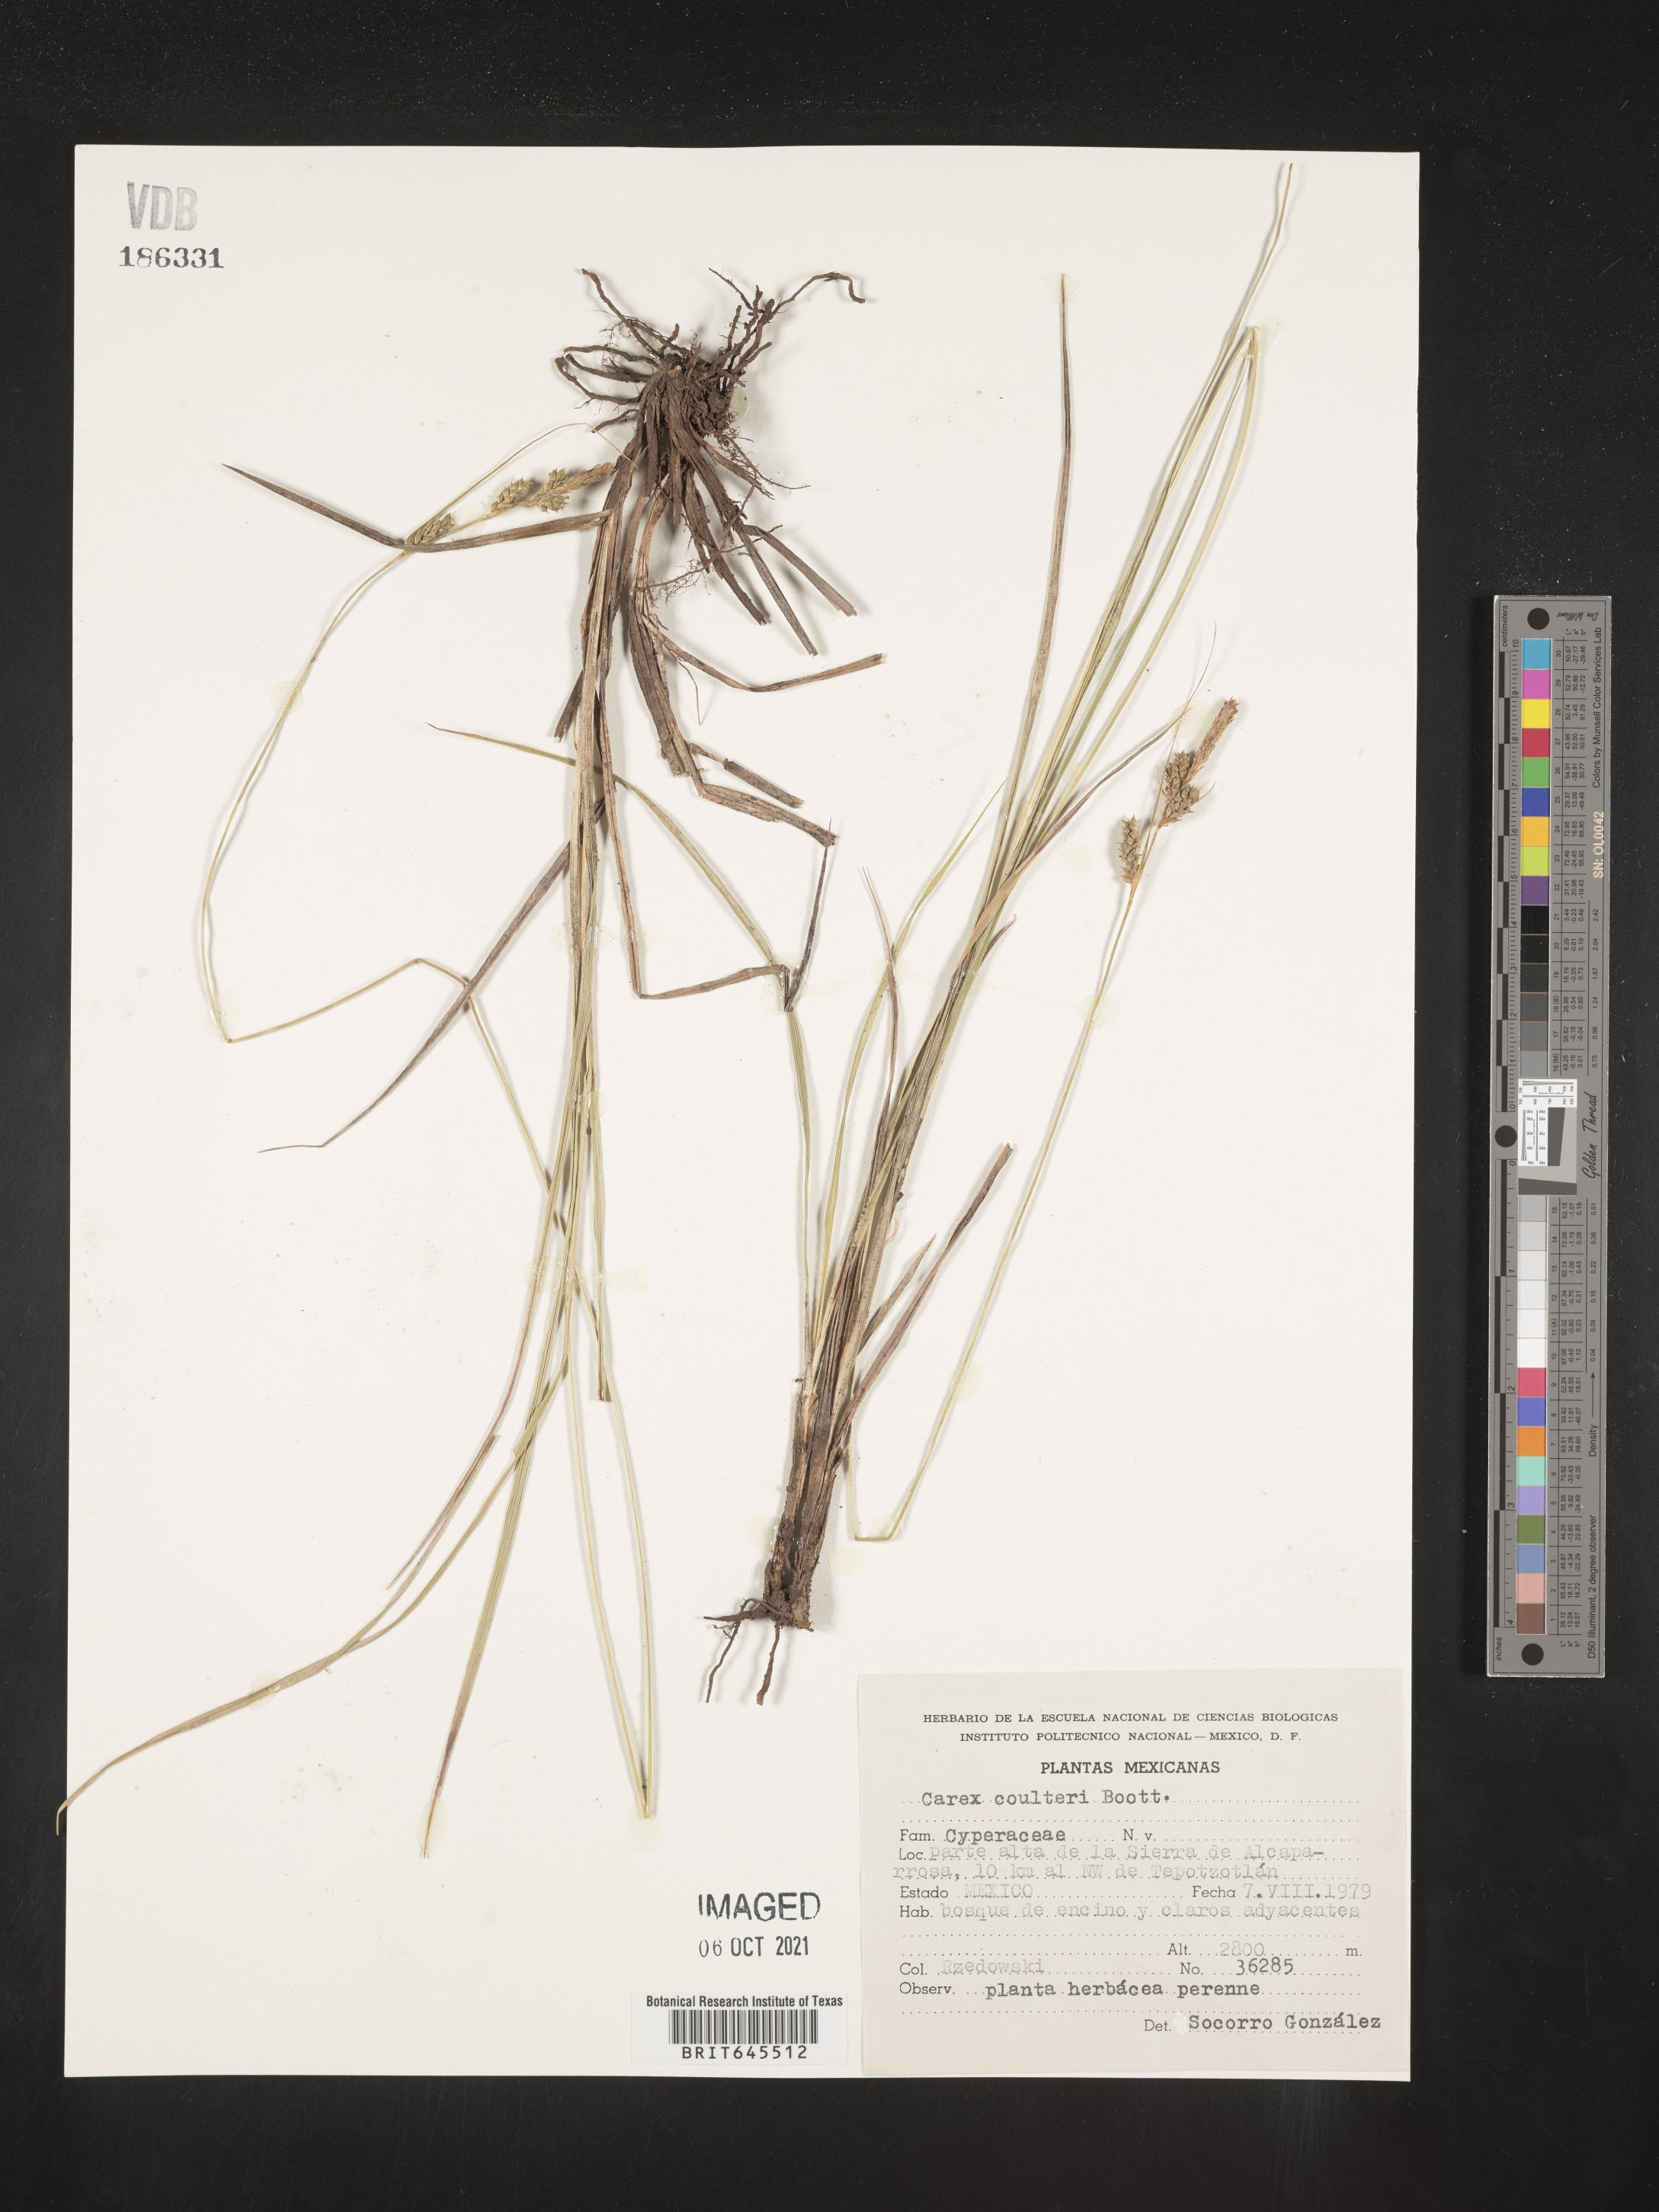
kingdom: Plantae
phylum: Tracheophyta
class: Liliopsida
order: Poales
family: Cyperaceae
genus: Carex
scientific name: Carex
